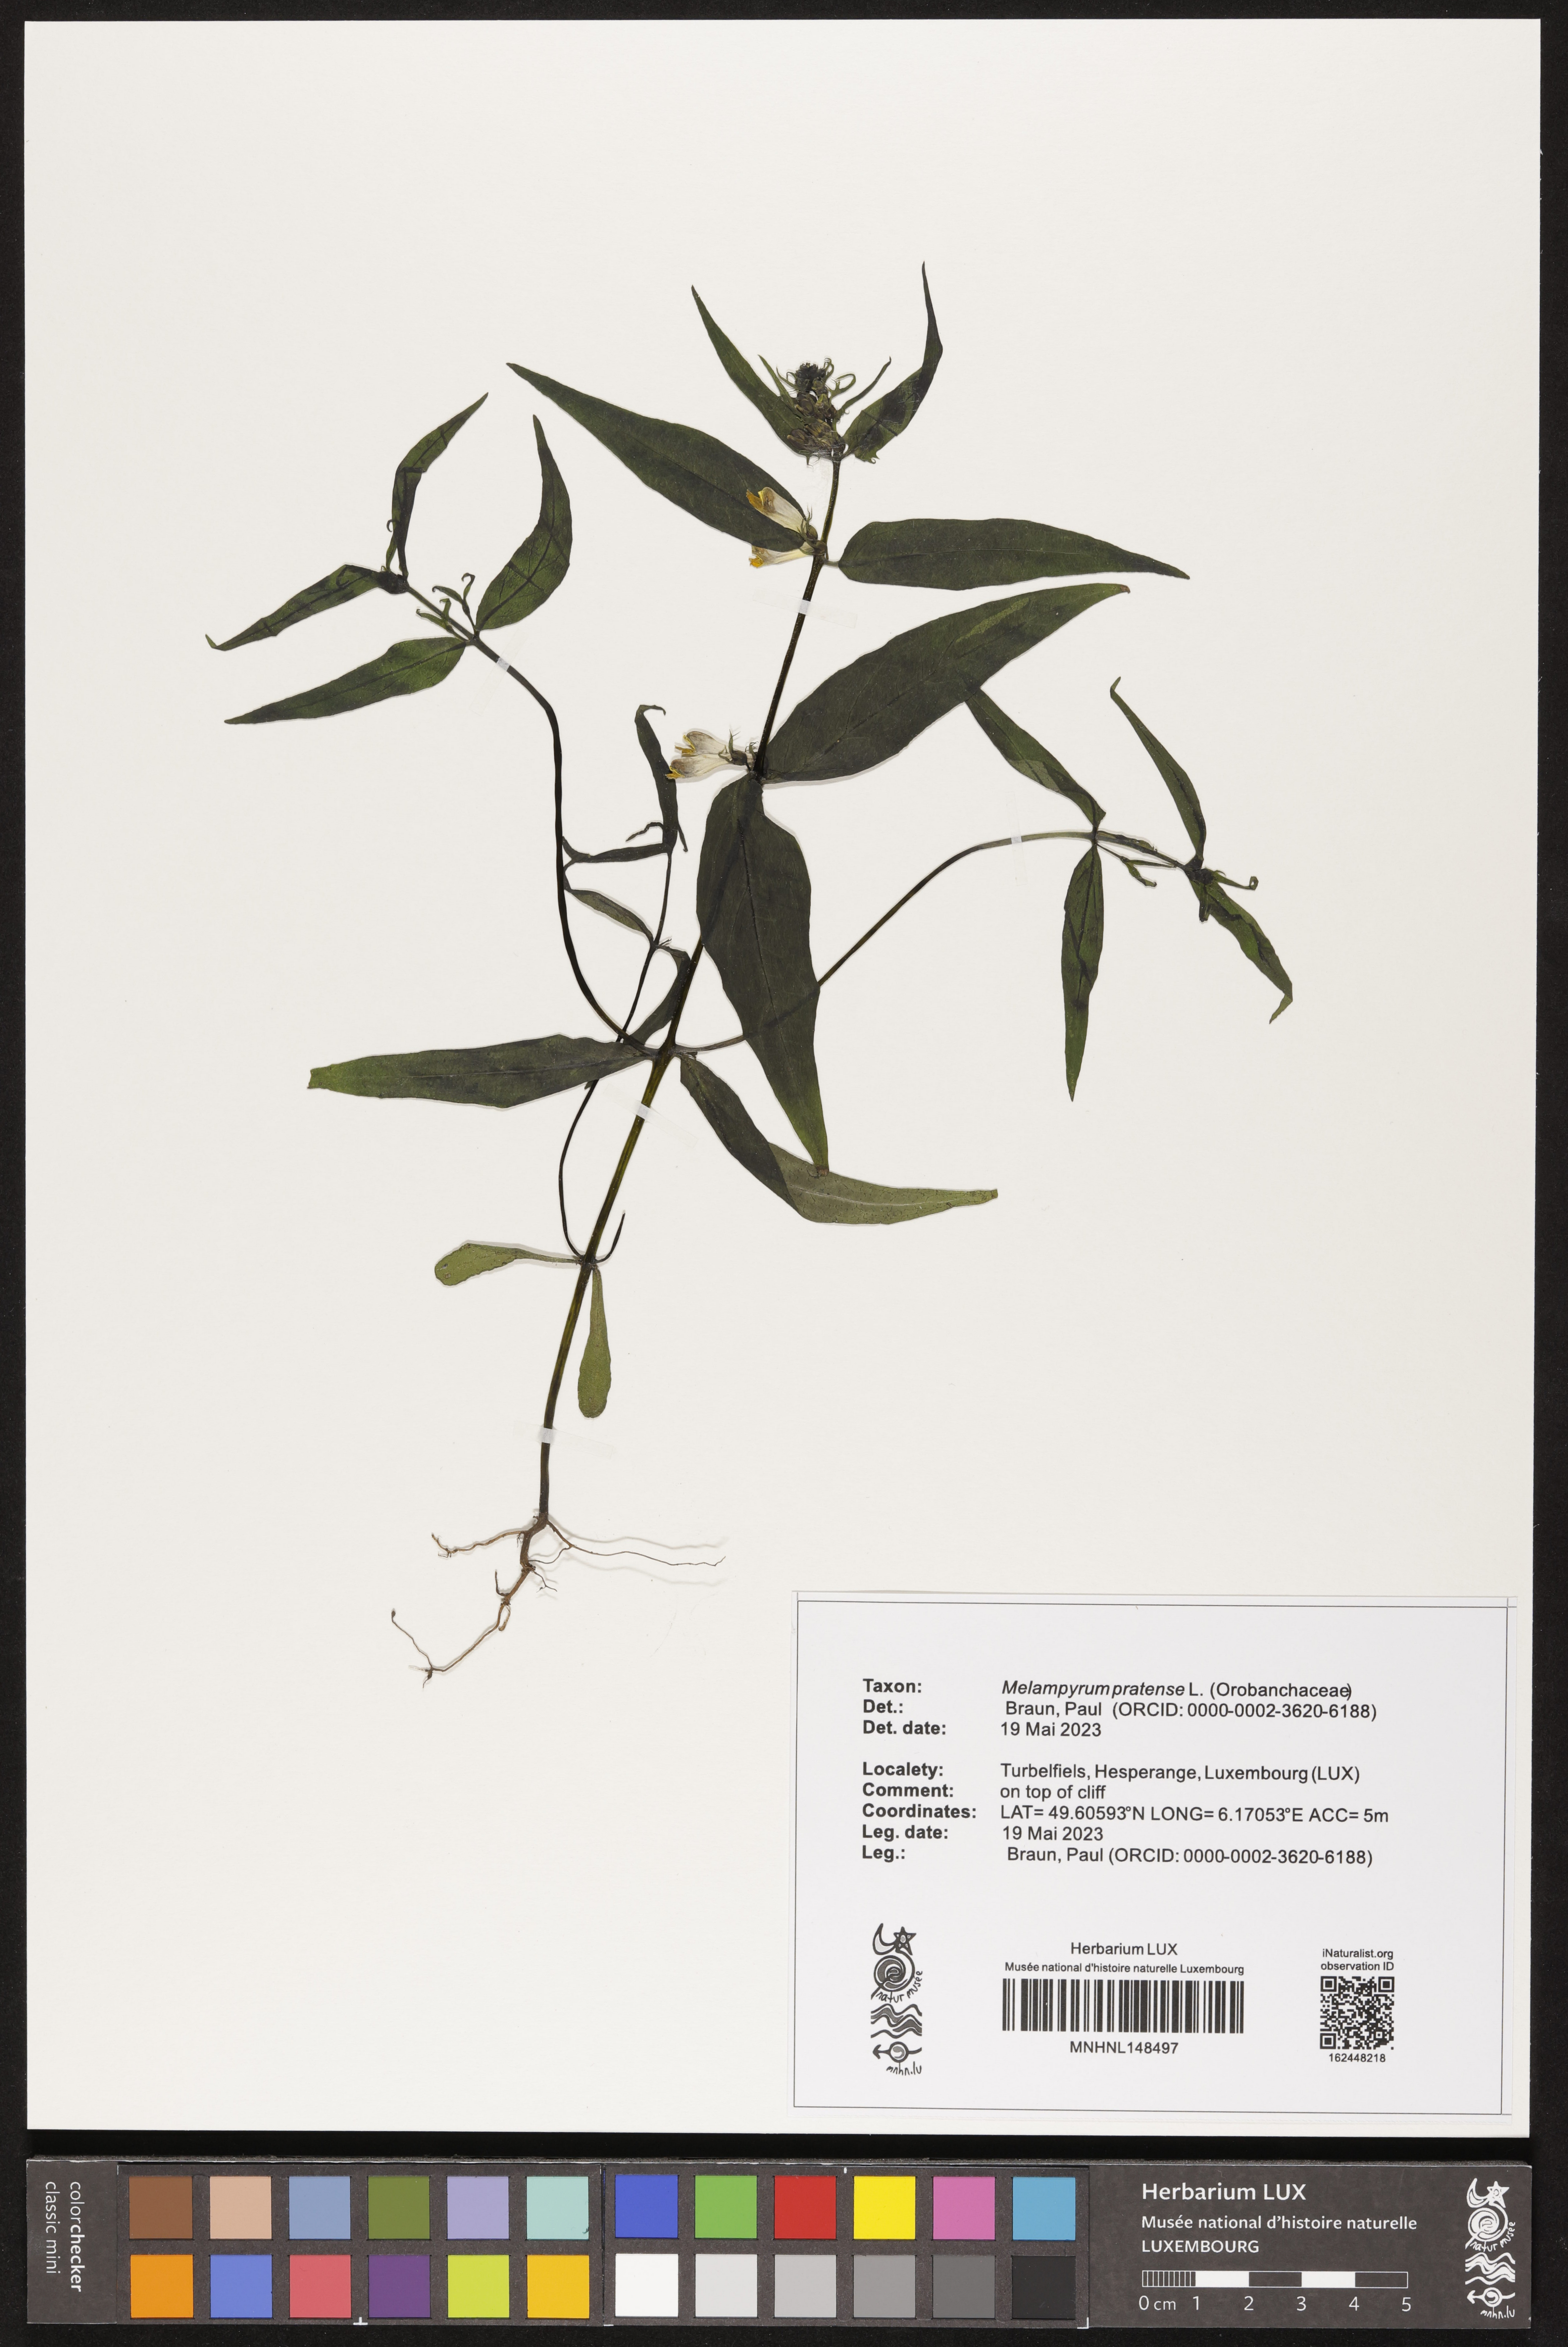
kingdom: Plantae
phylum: Tracheophyta
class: Magnoliopsida
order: Lamiales
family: Orobanchaceae
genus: Melampyrum
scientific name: Melampyrum pratense
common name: Common cow-wheat
